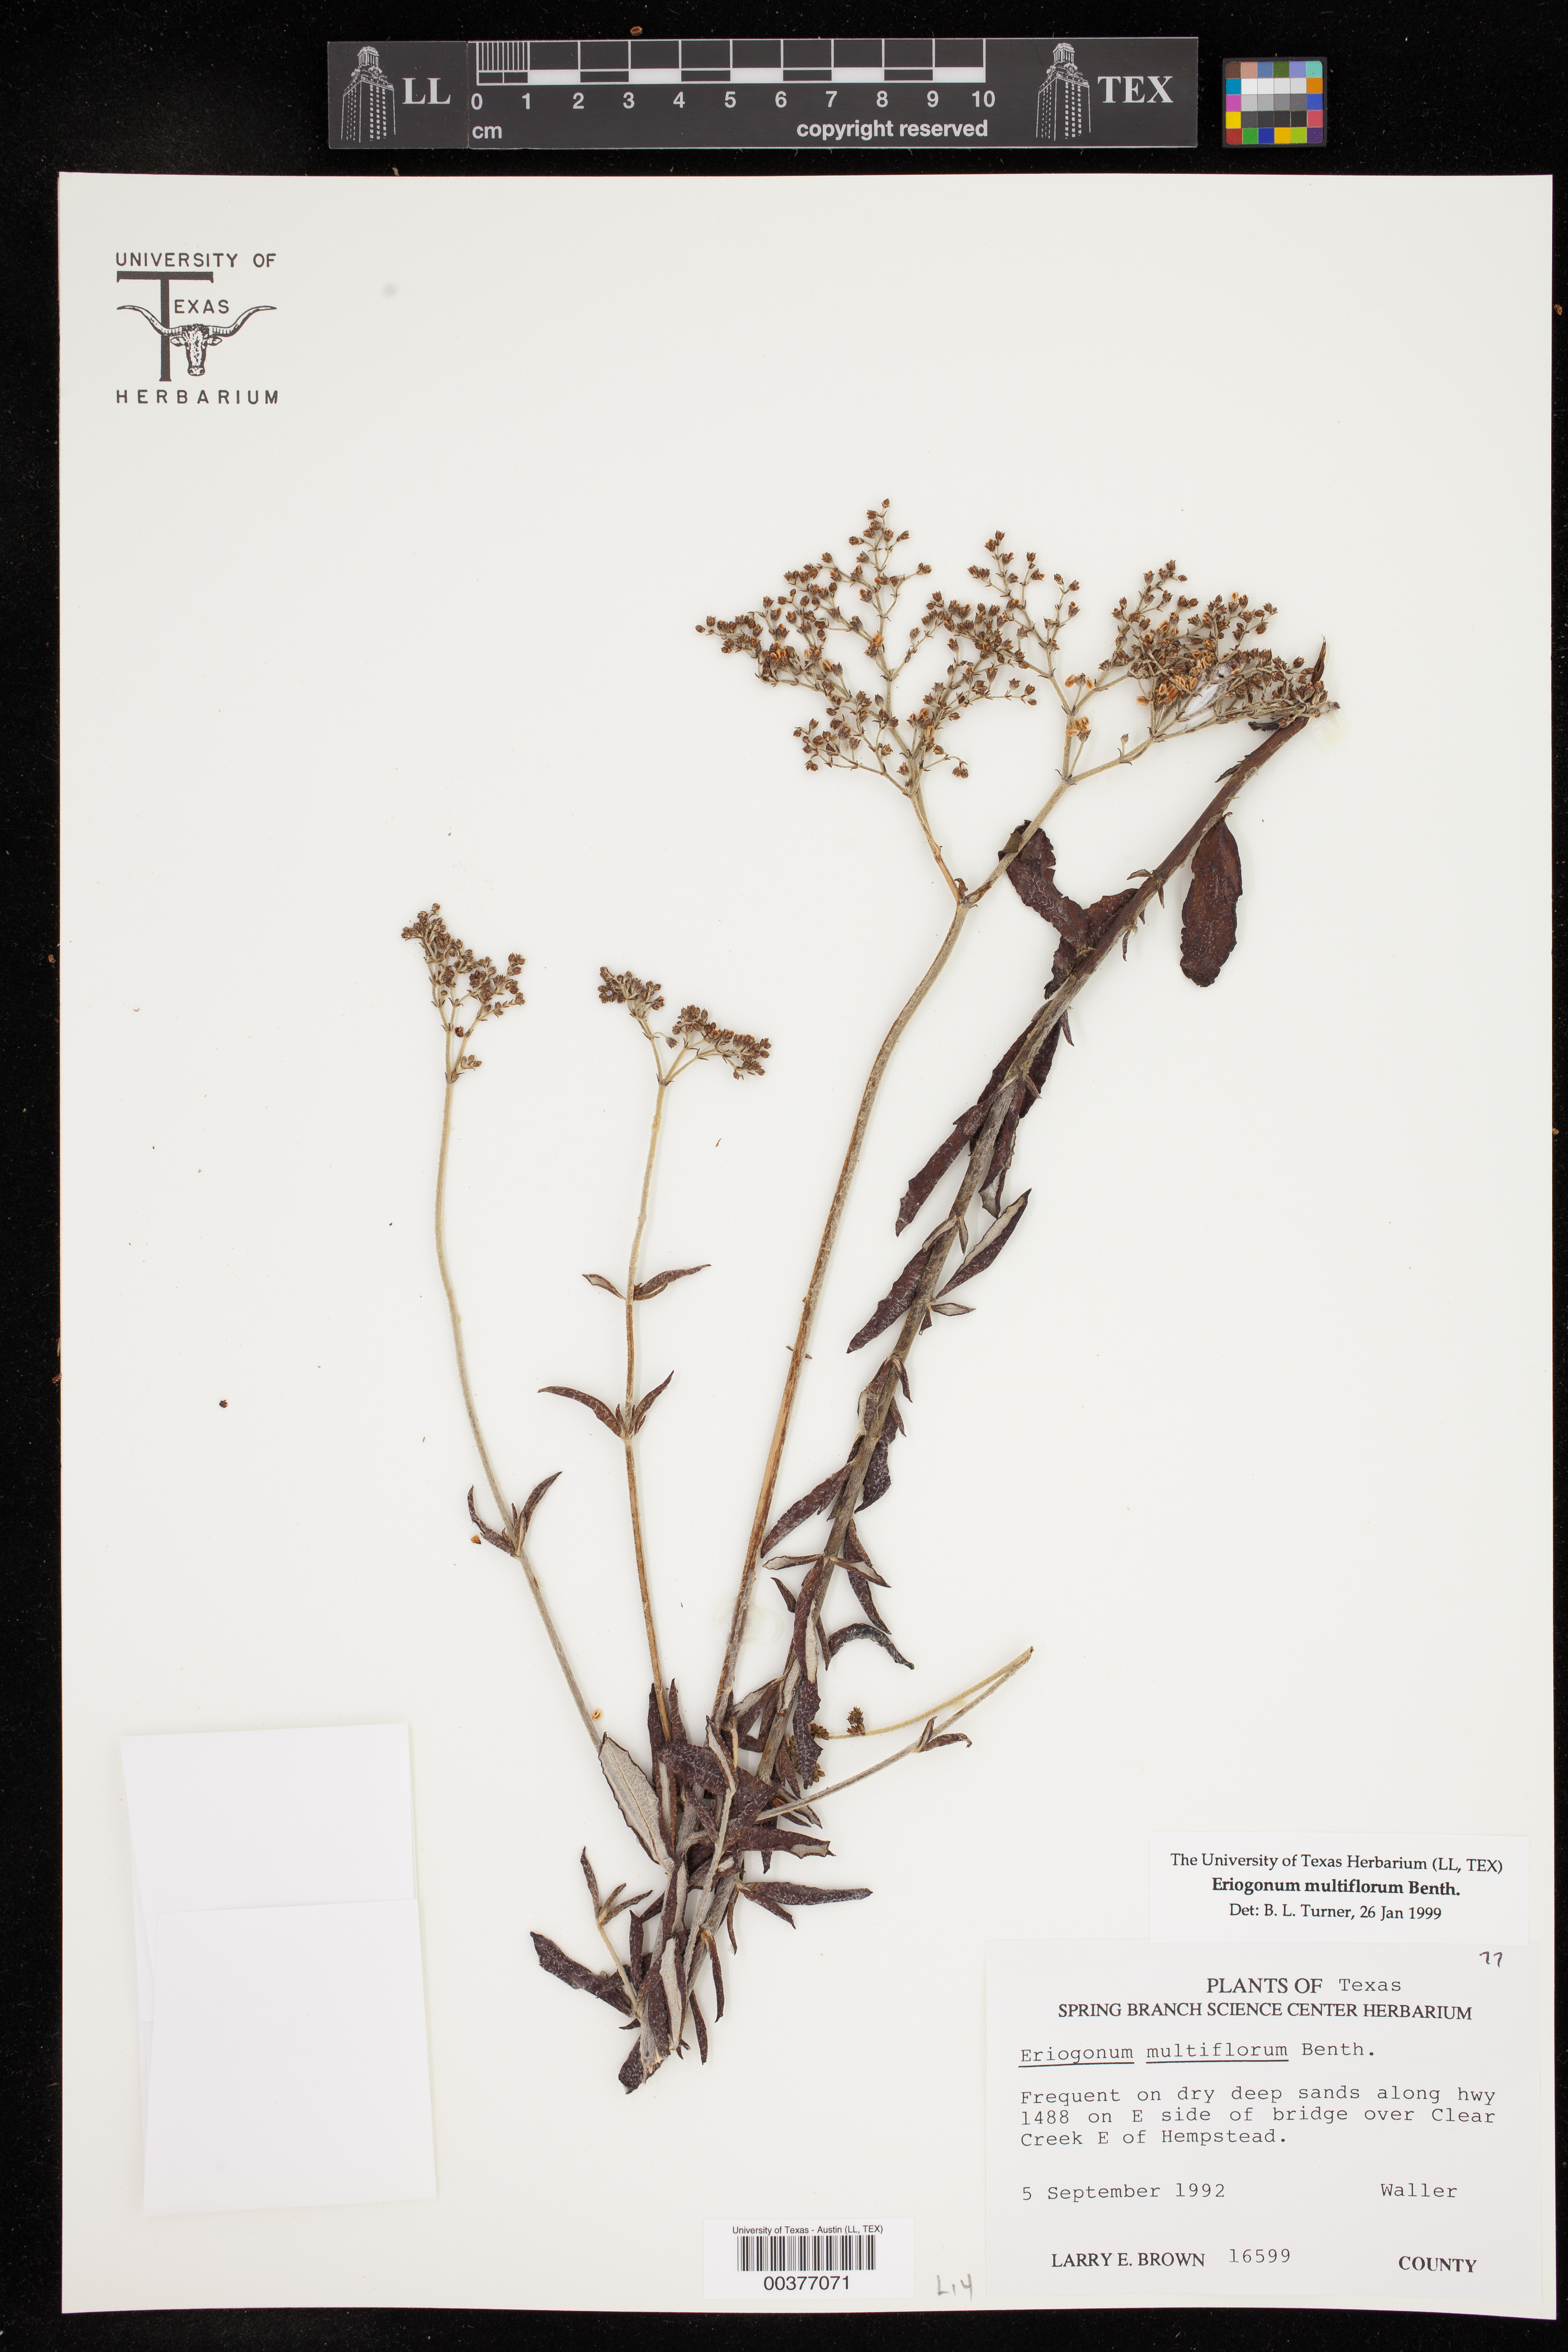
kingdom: Plantae
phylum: Tracheophyta
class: Magnoliopsida
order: Caryophyllales
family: Polygonaceae
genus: Eriogonum
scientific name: Eriogonum multiflorum
